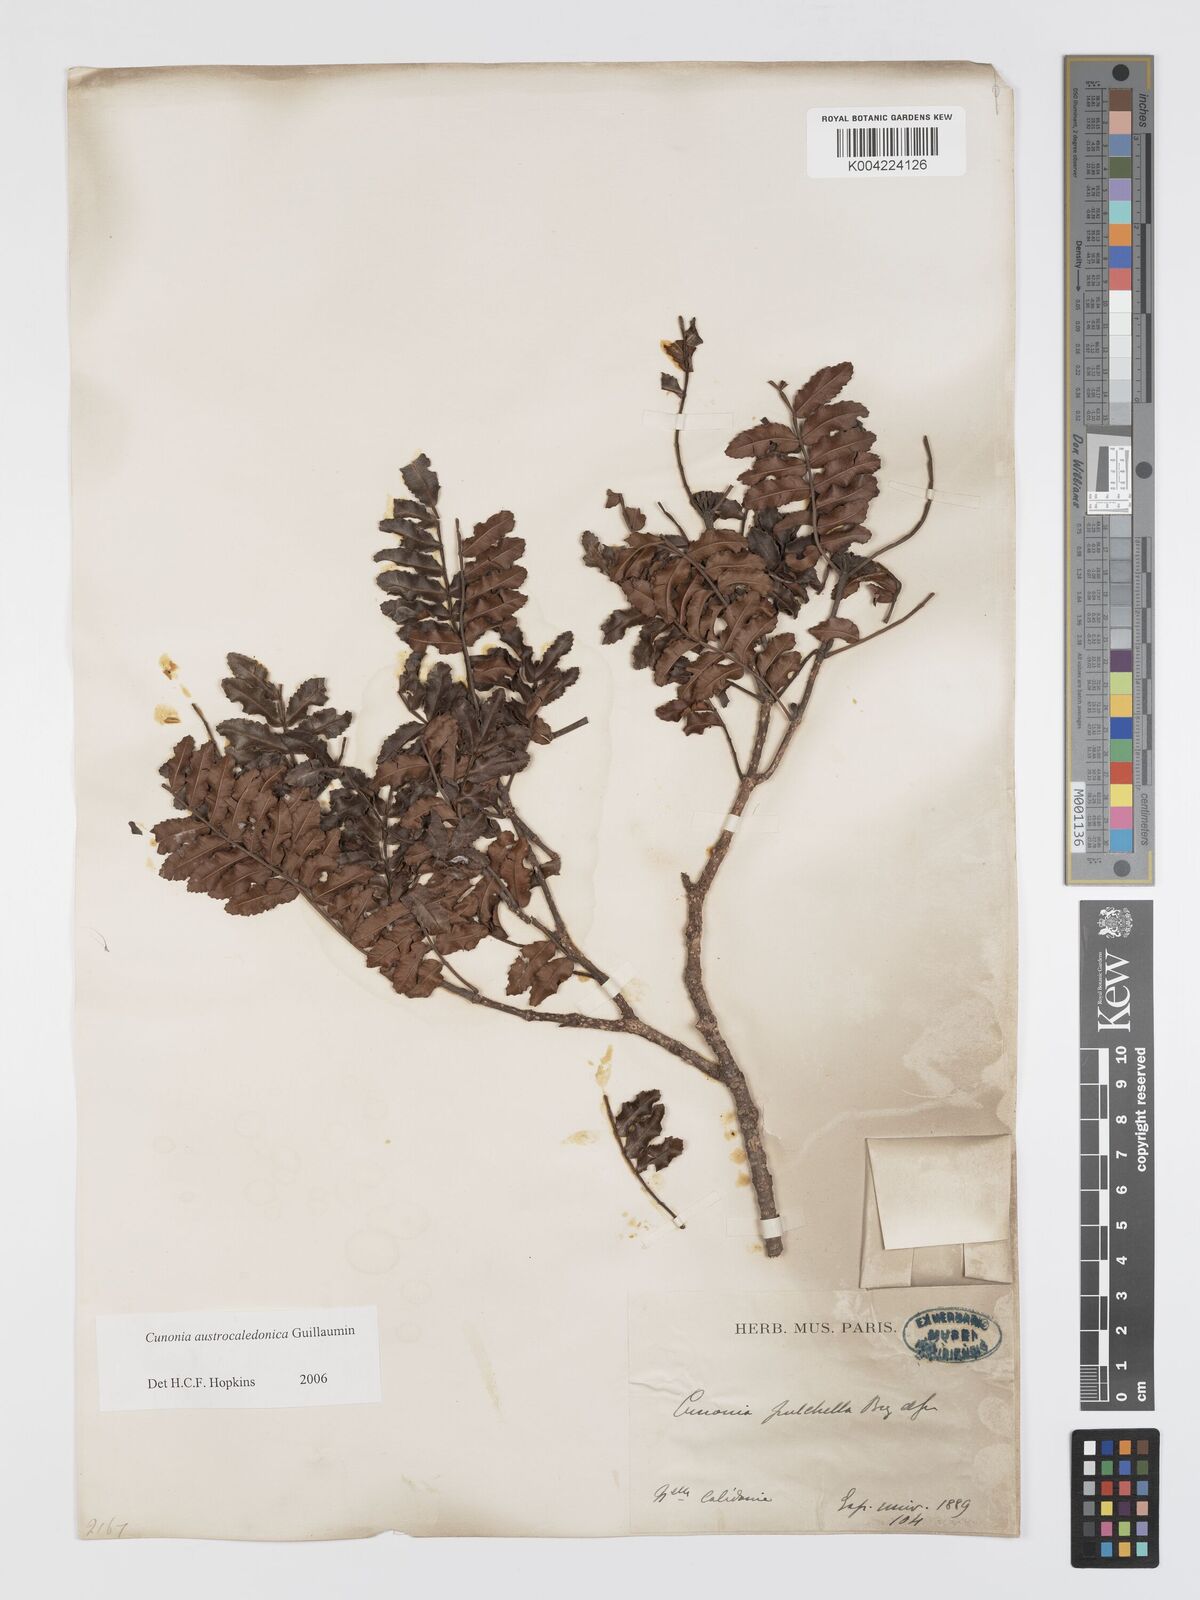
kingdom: Plantae
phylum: Tracheophyta
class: Magnoliopsida
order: Oxalidales
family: Cunoniaceae
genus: Cunonia
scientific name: Cunonia austrocaledonica
